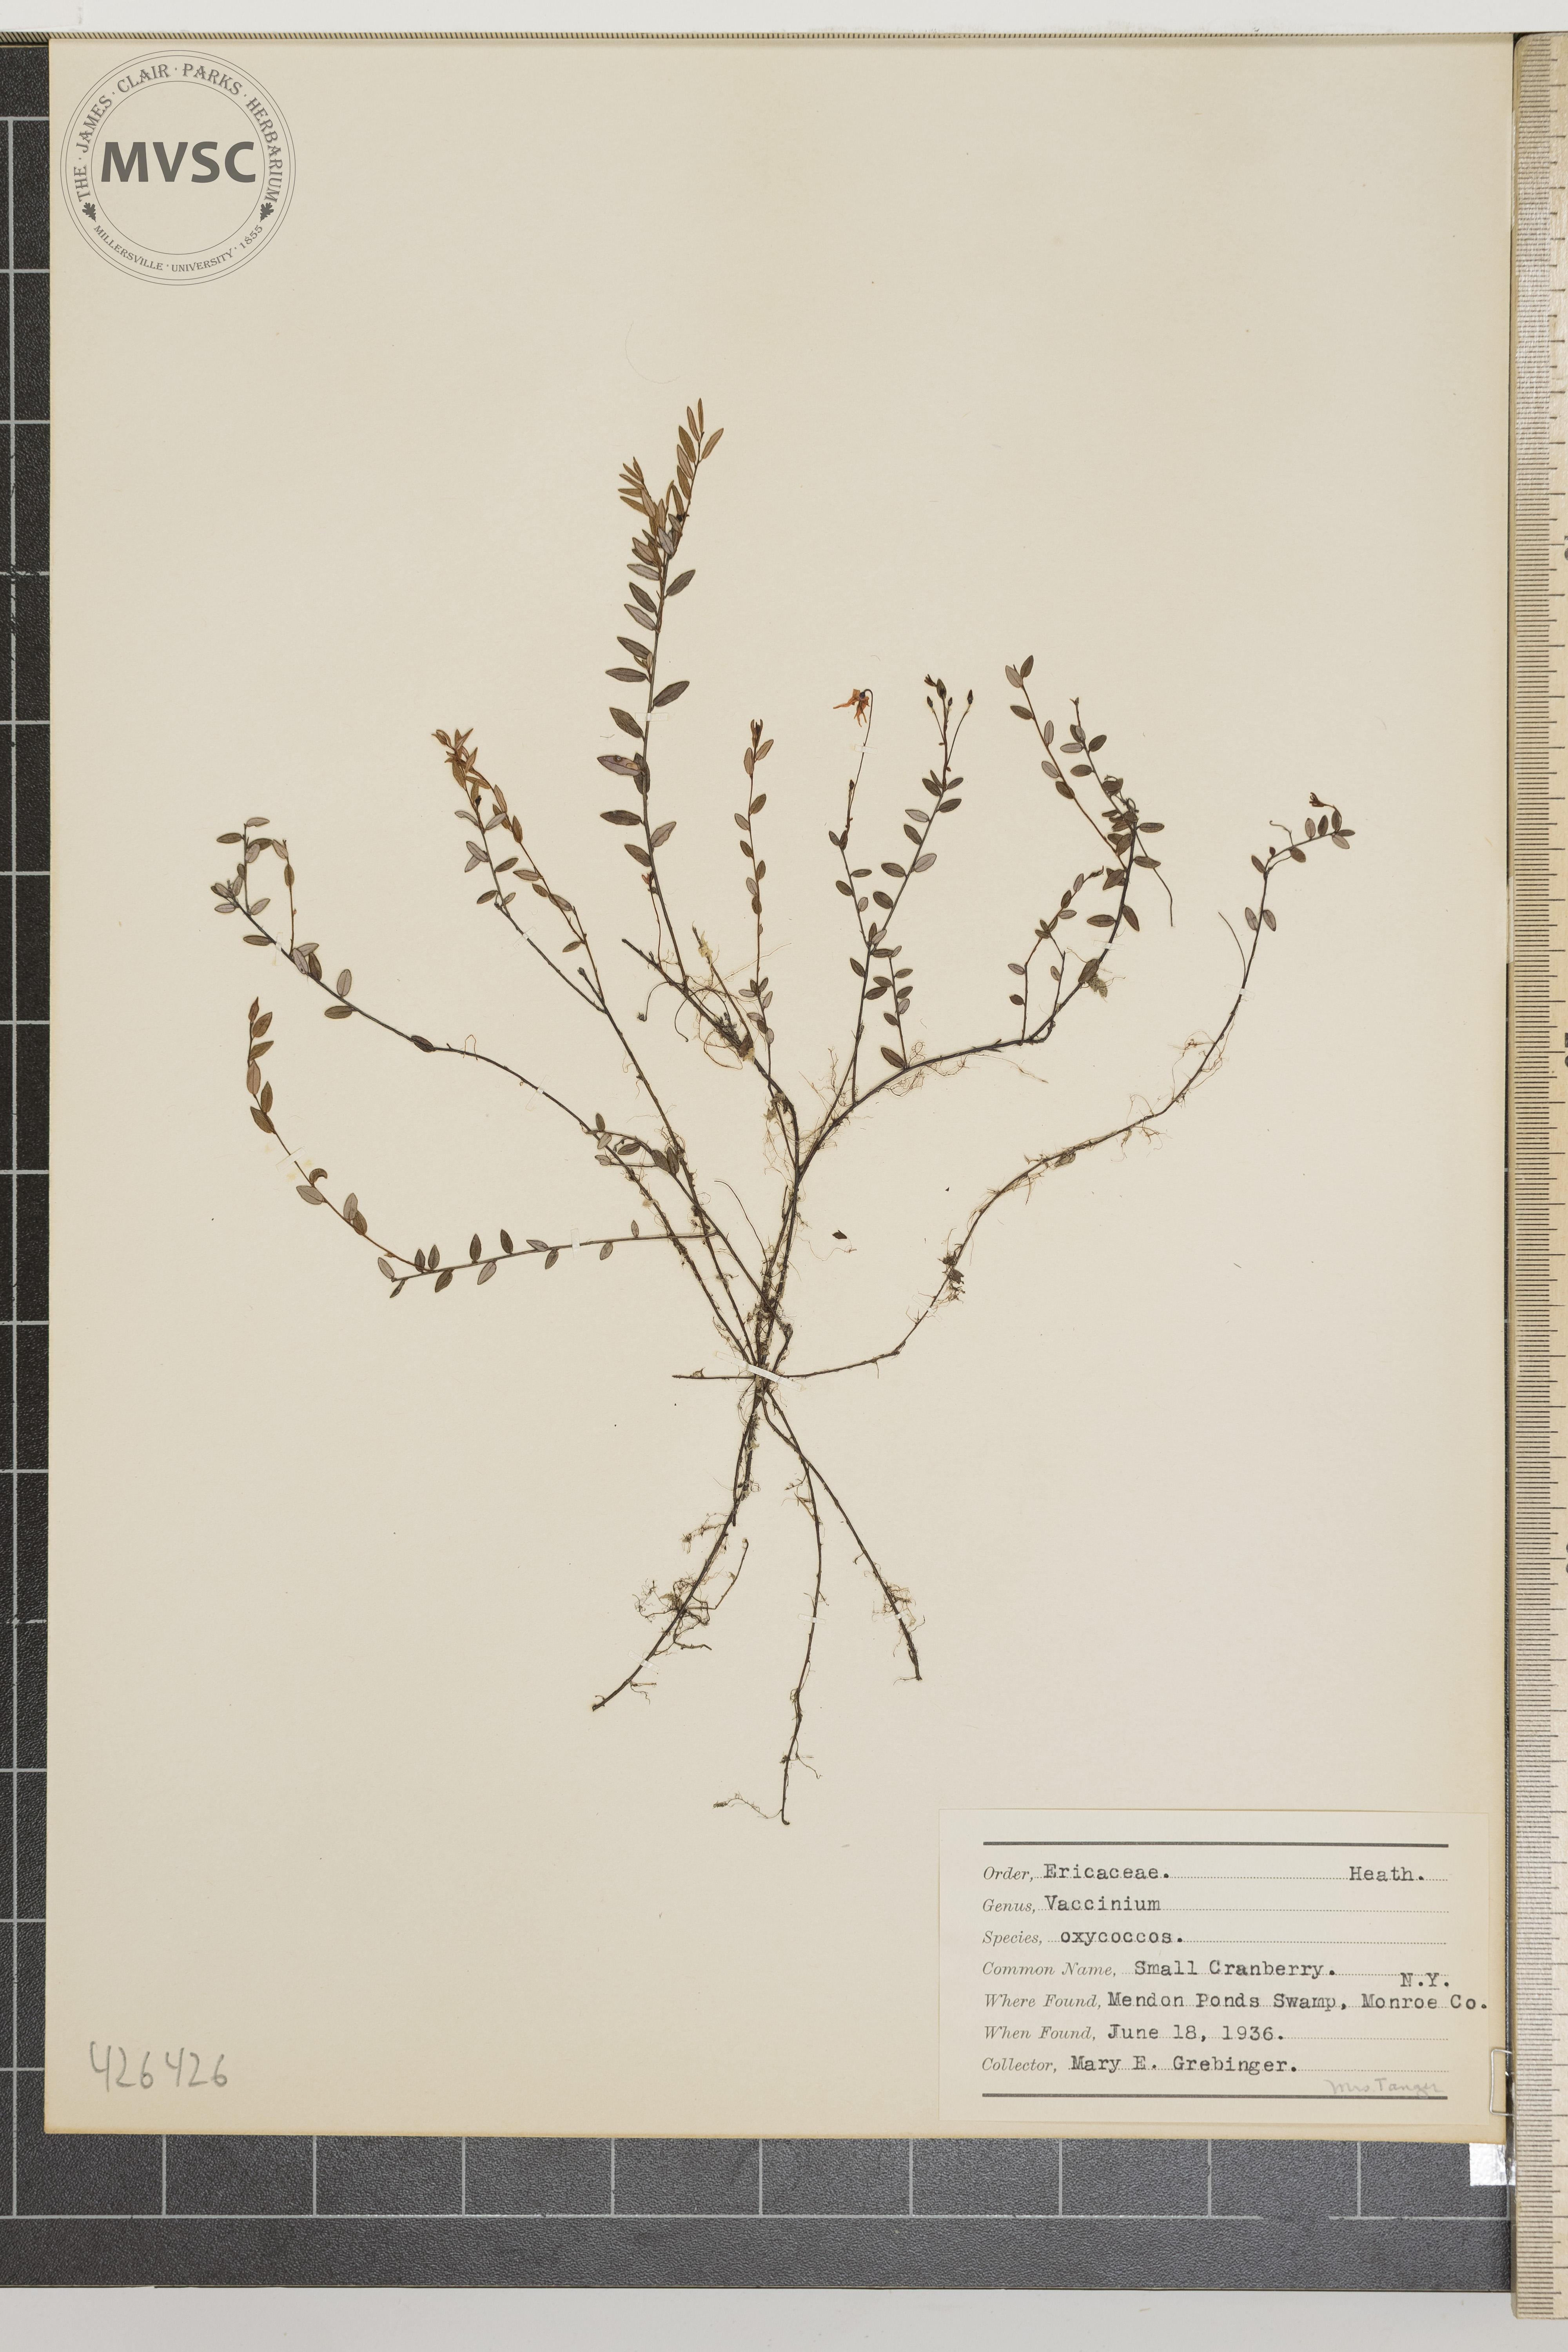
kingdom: Plantae
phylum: Tracheophyta
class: Magnoliopsida
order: Ericales
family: Ericaceae
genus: Vaccinium
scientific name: Vaccinium oxycoccos
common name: Small Cranberry
